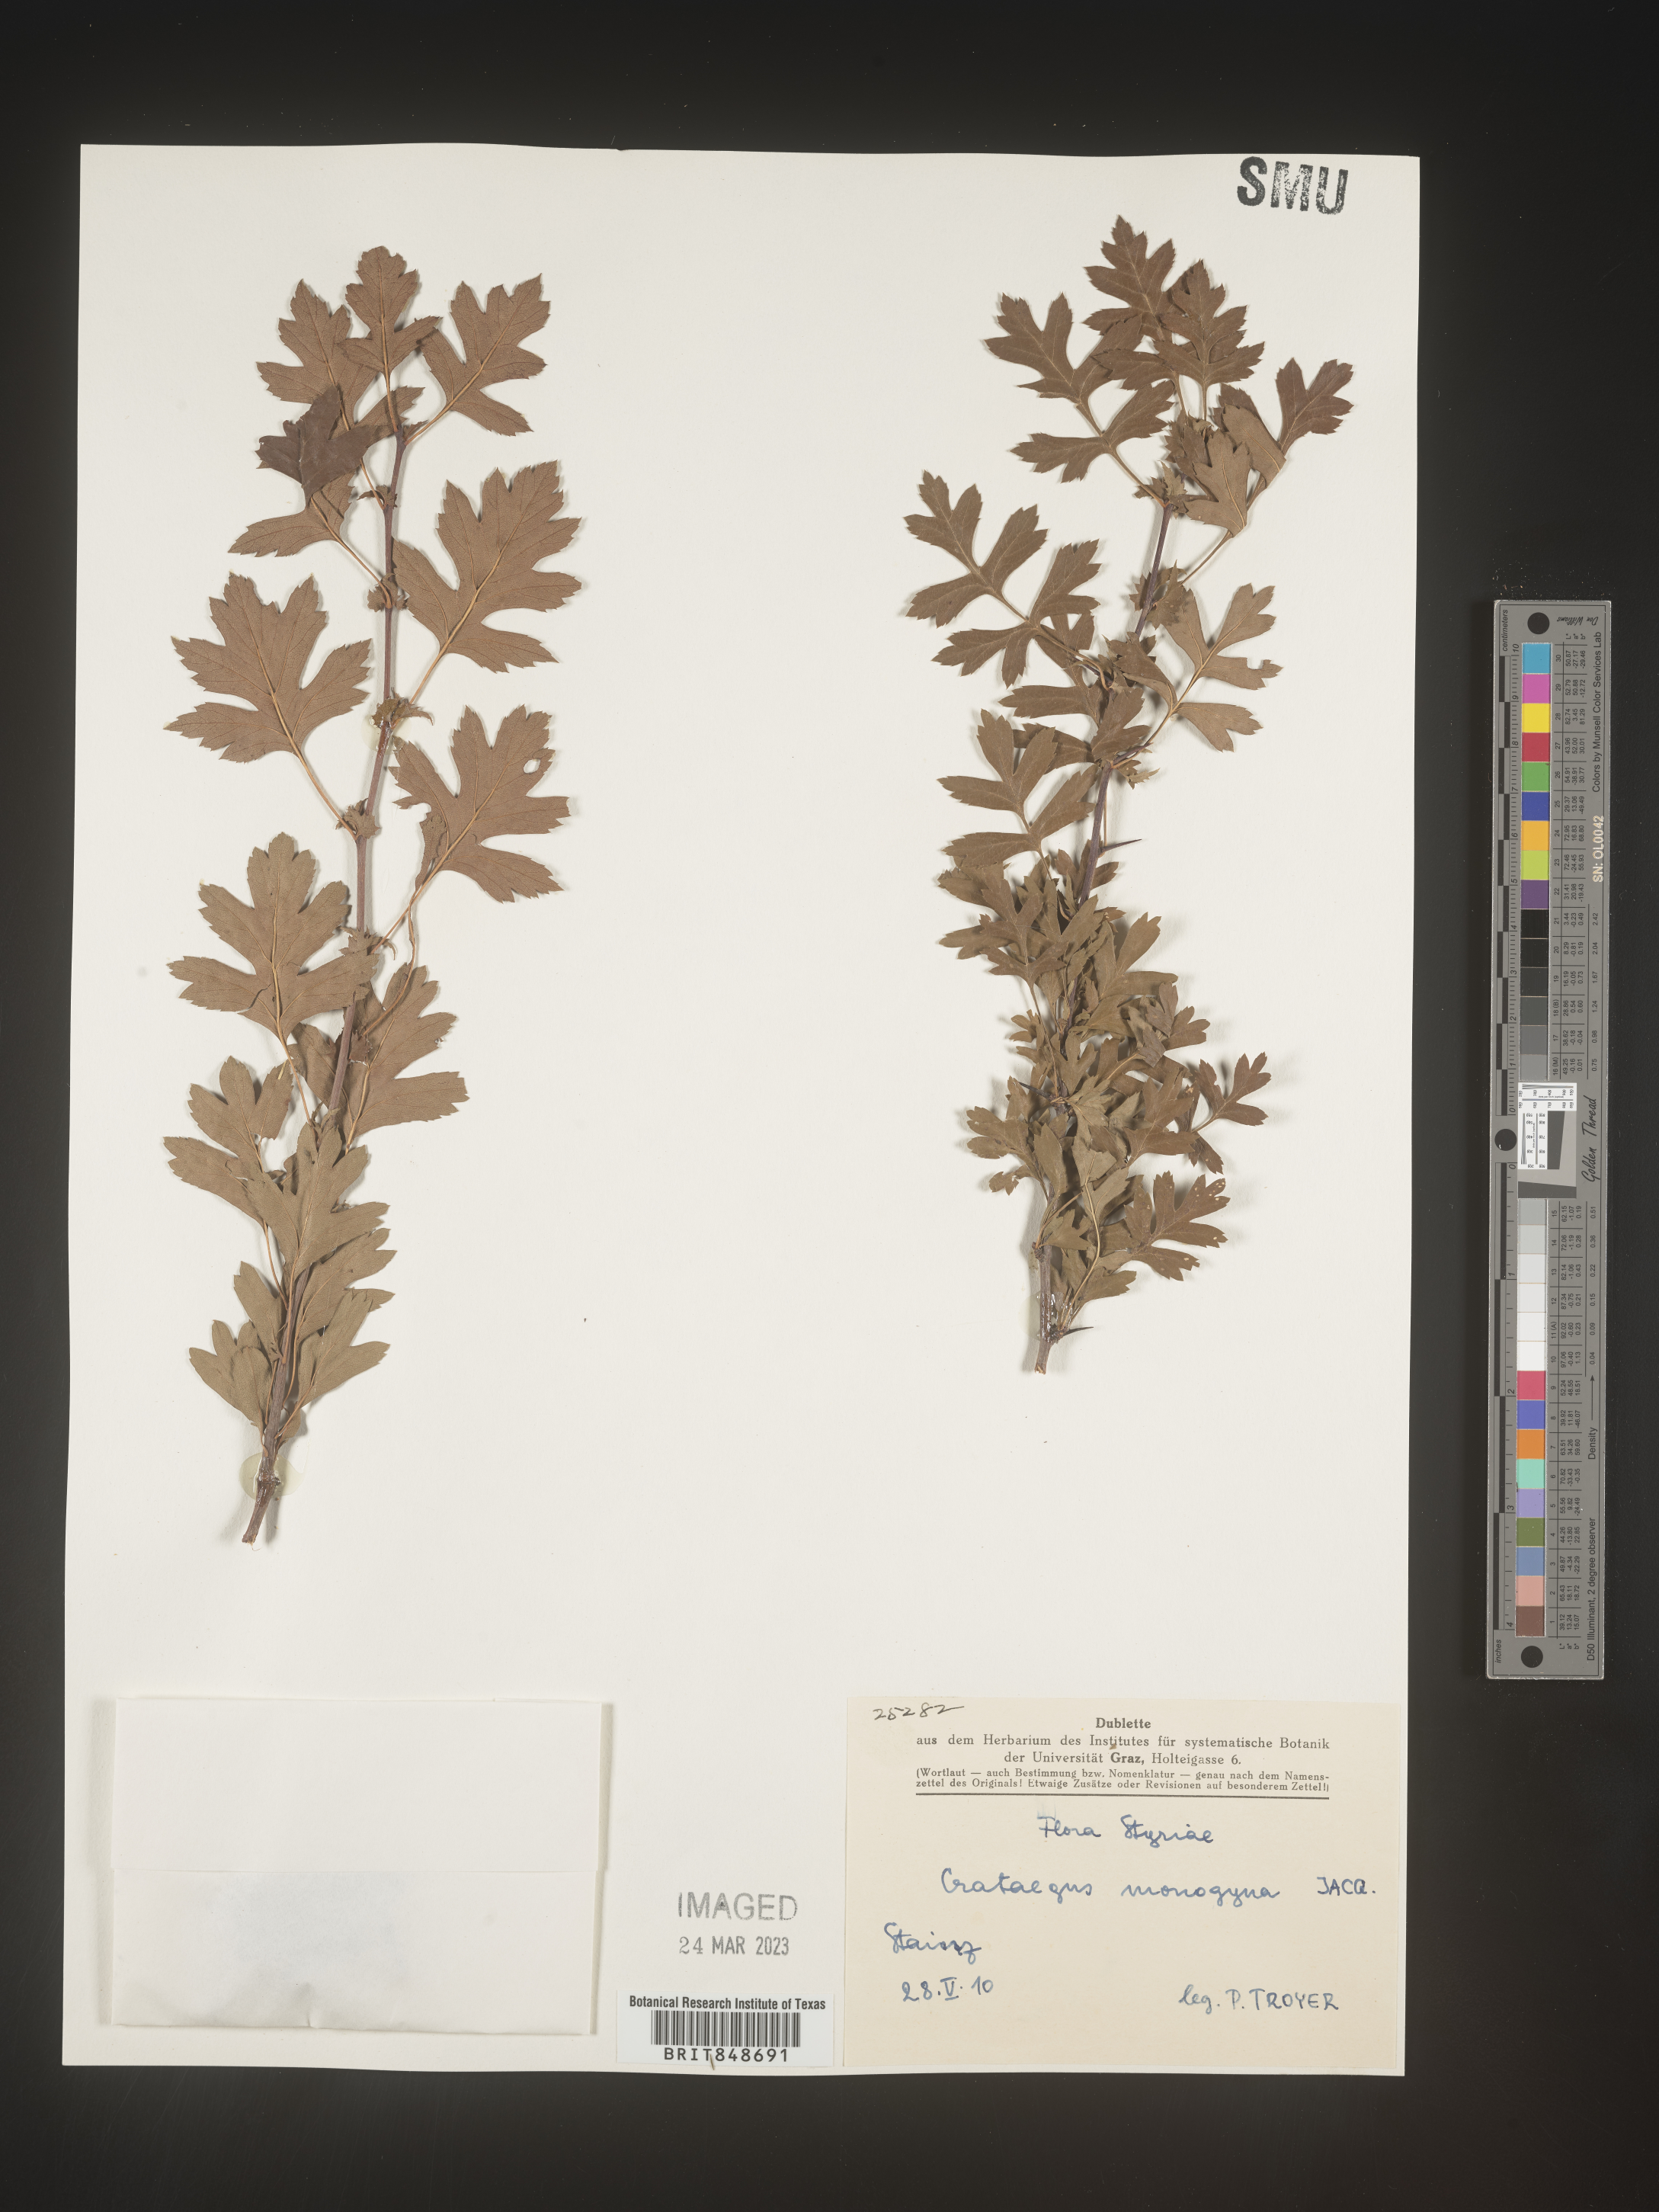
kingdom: Plantae
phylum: Tracheophyta
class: Magnoliopsida
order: Rosales
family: Rosaceae
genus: Crataegus
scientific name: Crataegus
